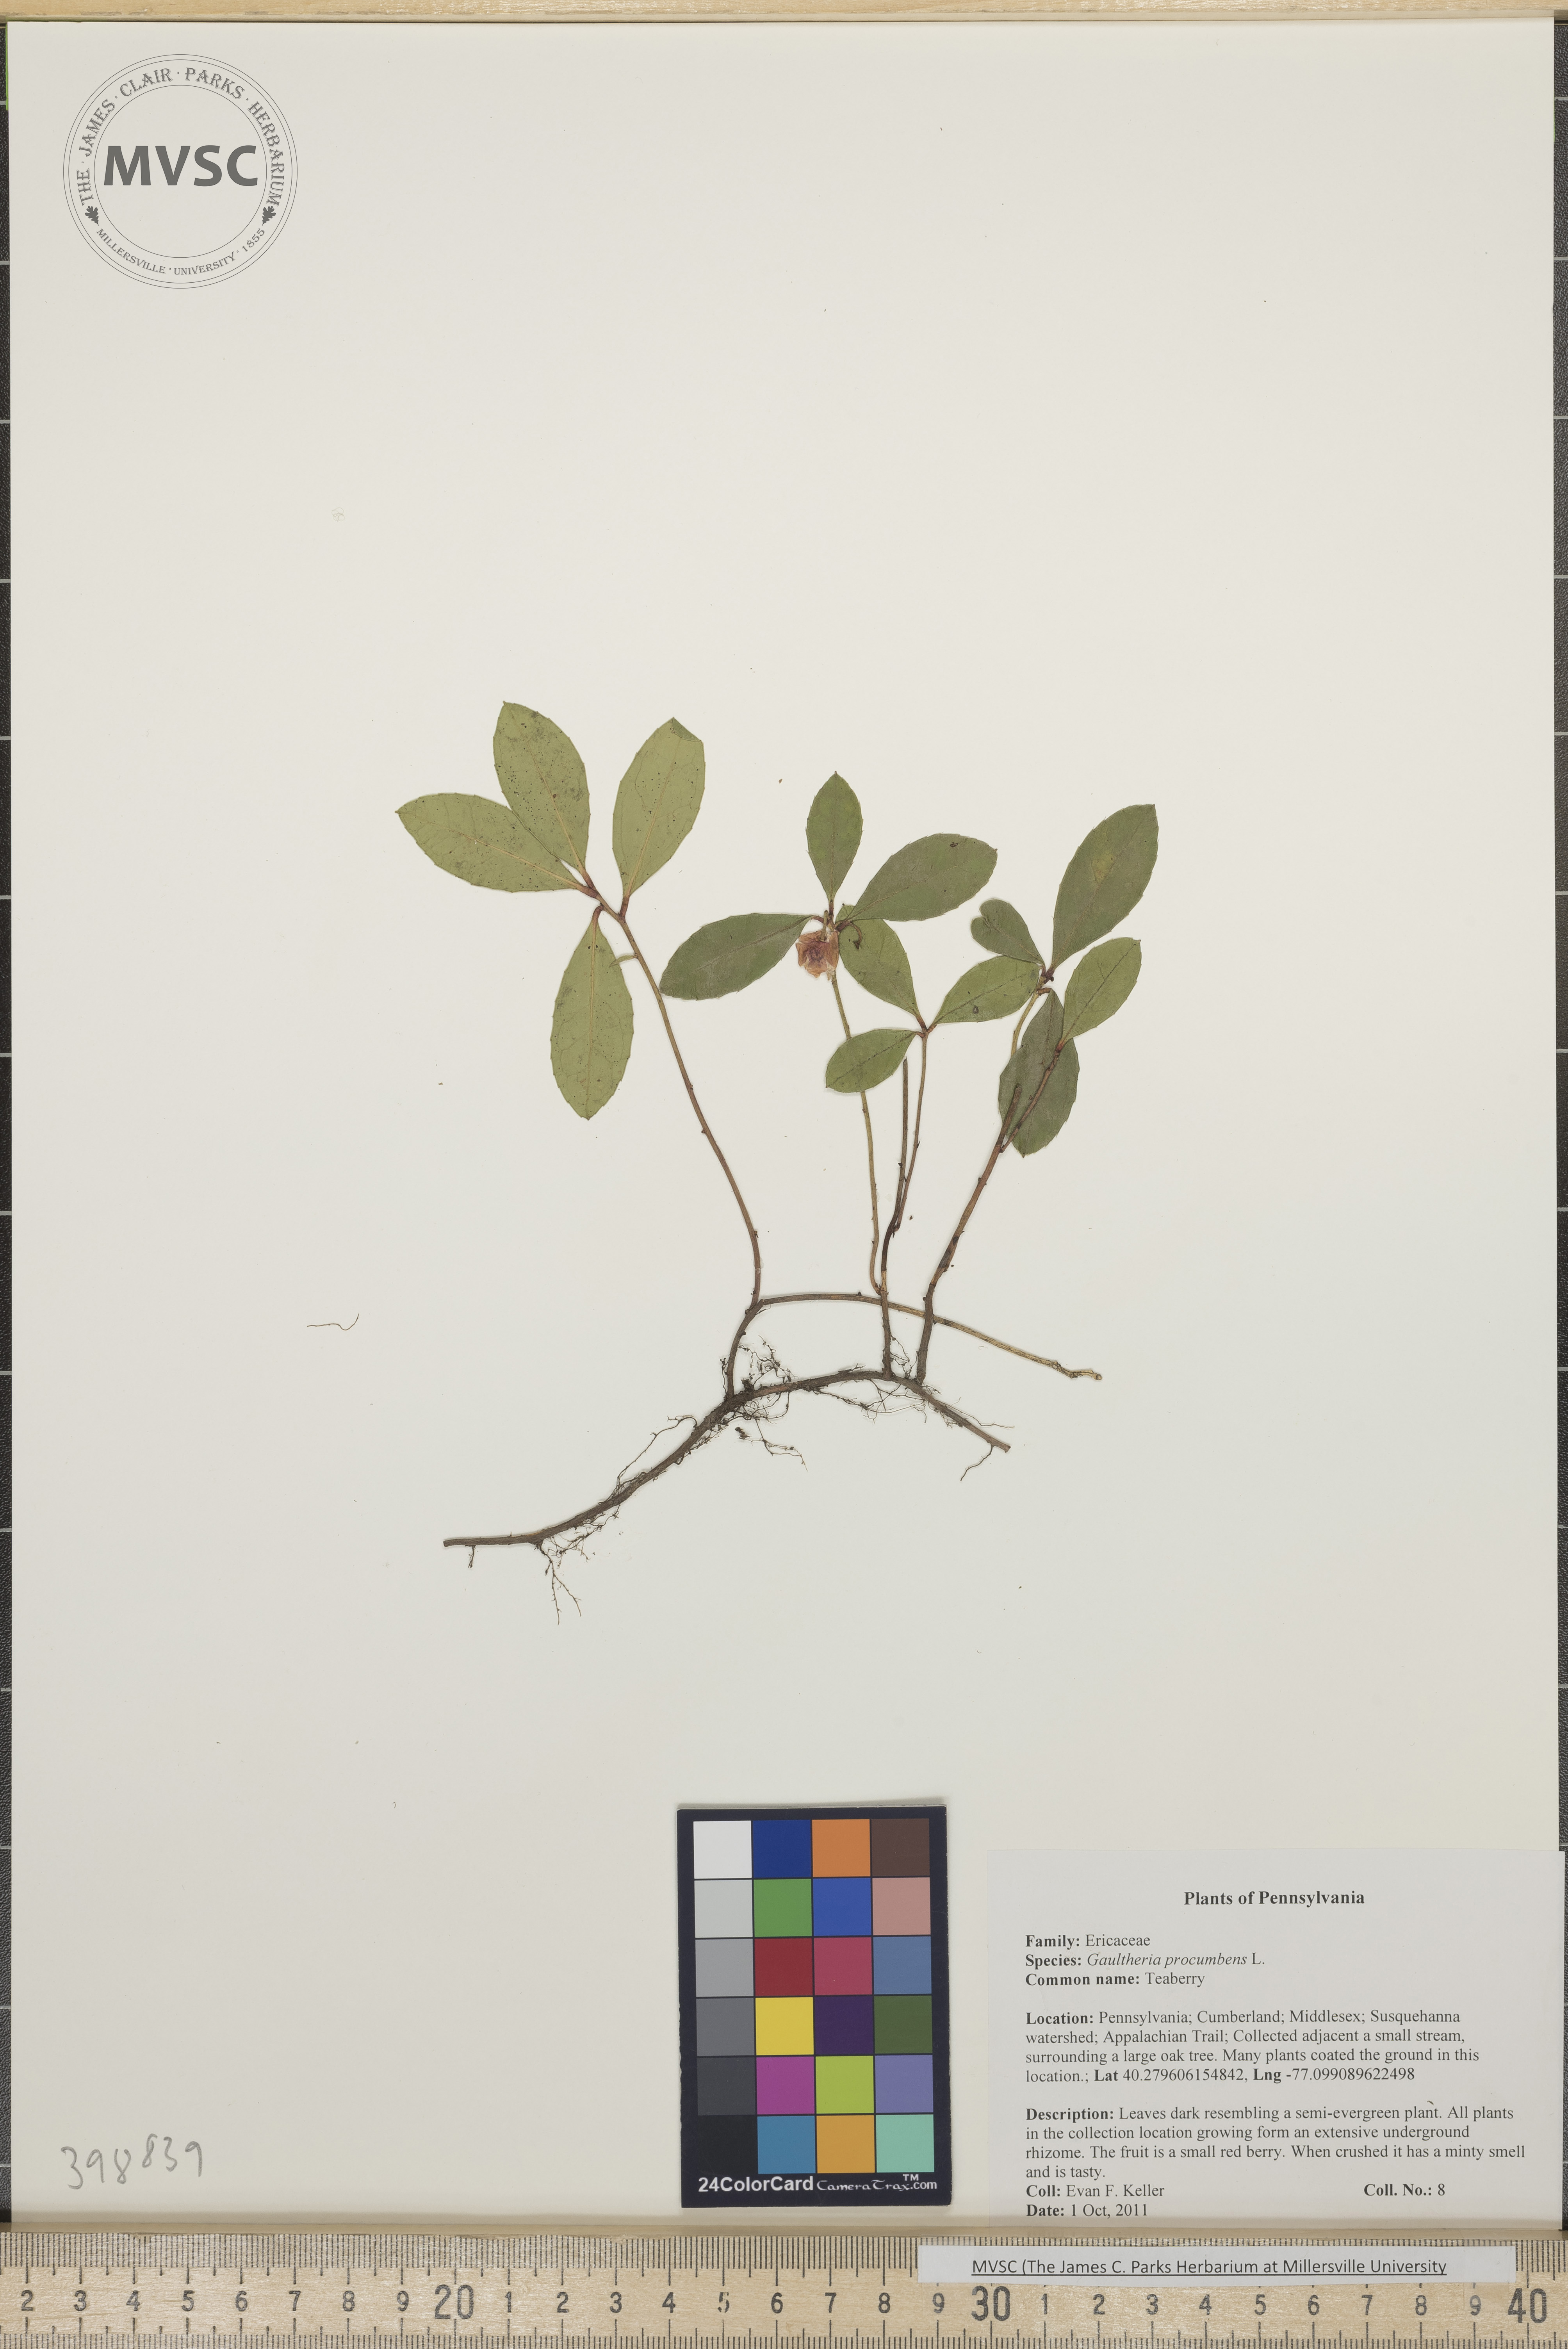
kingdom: Plantae
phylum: Tracheophyta
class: Magnoliopsida
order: Ericales
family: Ericaceae
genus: Gaultheria
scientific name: Gaultheria procumbens
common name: Teaberry
